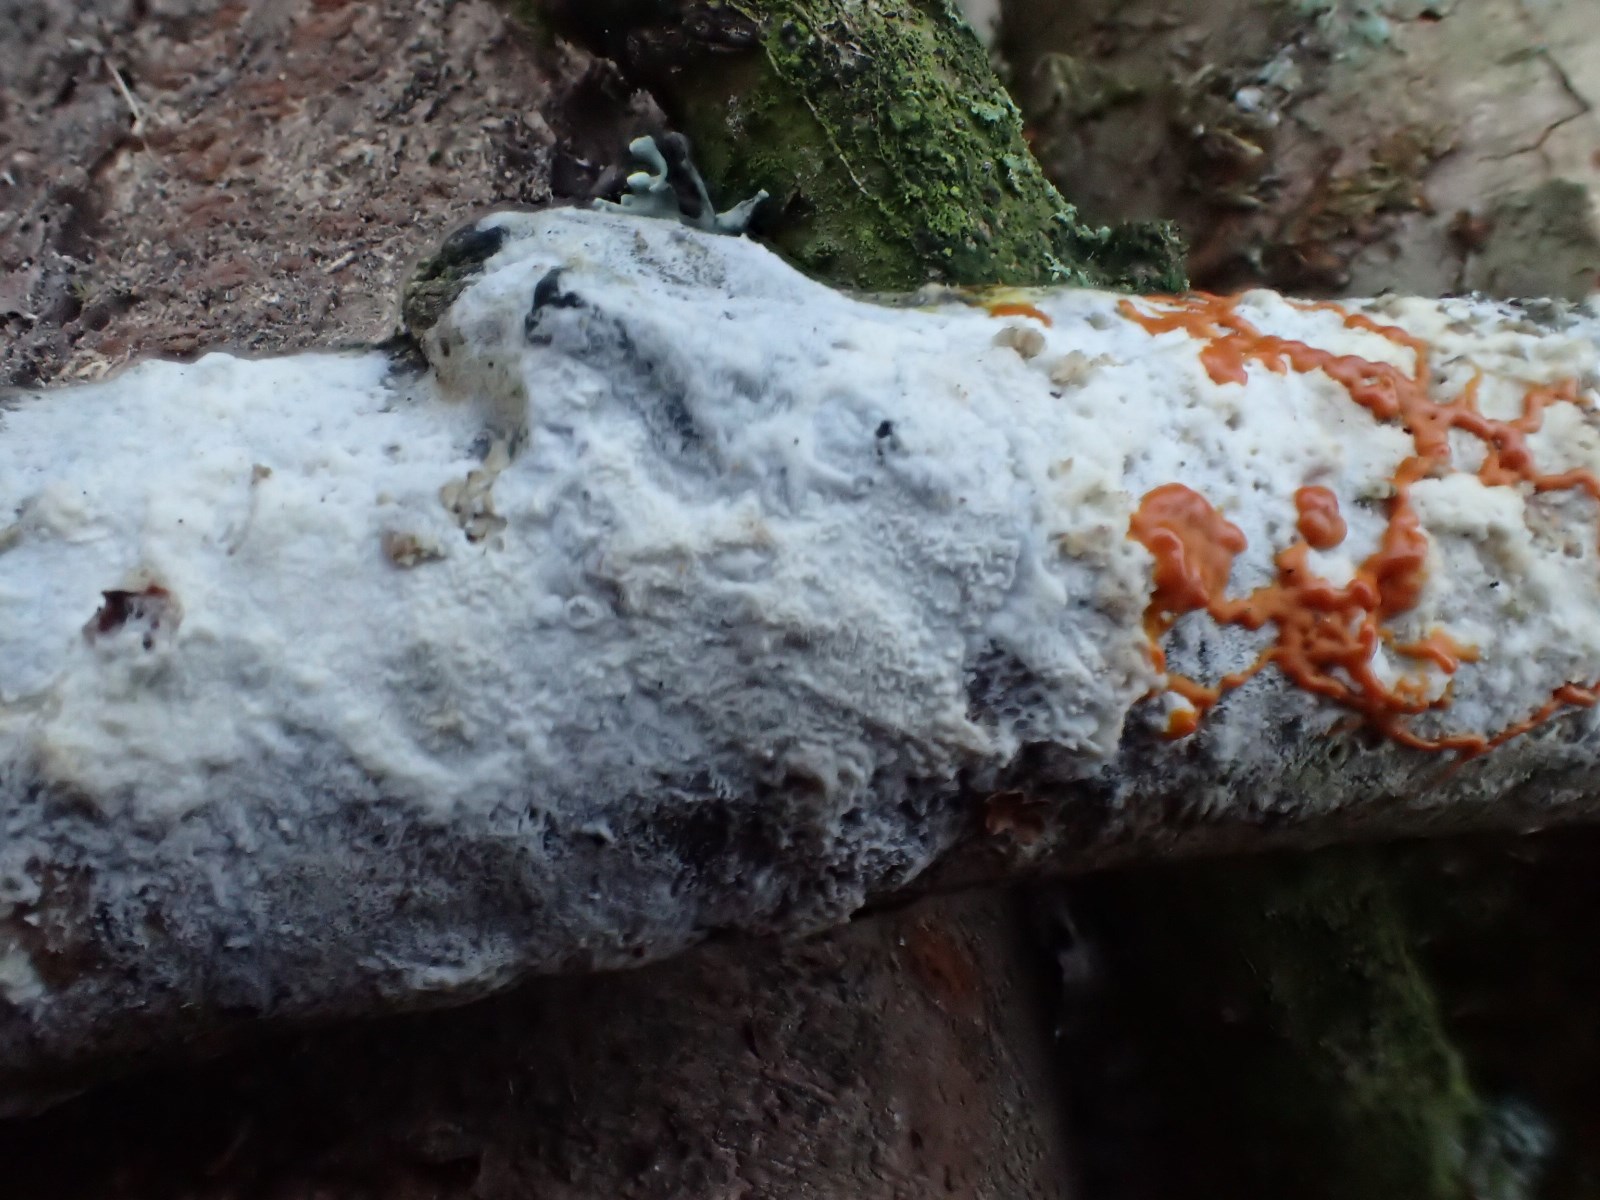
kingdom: Protozoa
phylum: Mycetozoa
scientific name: Mycetozoa
